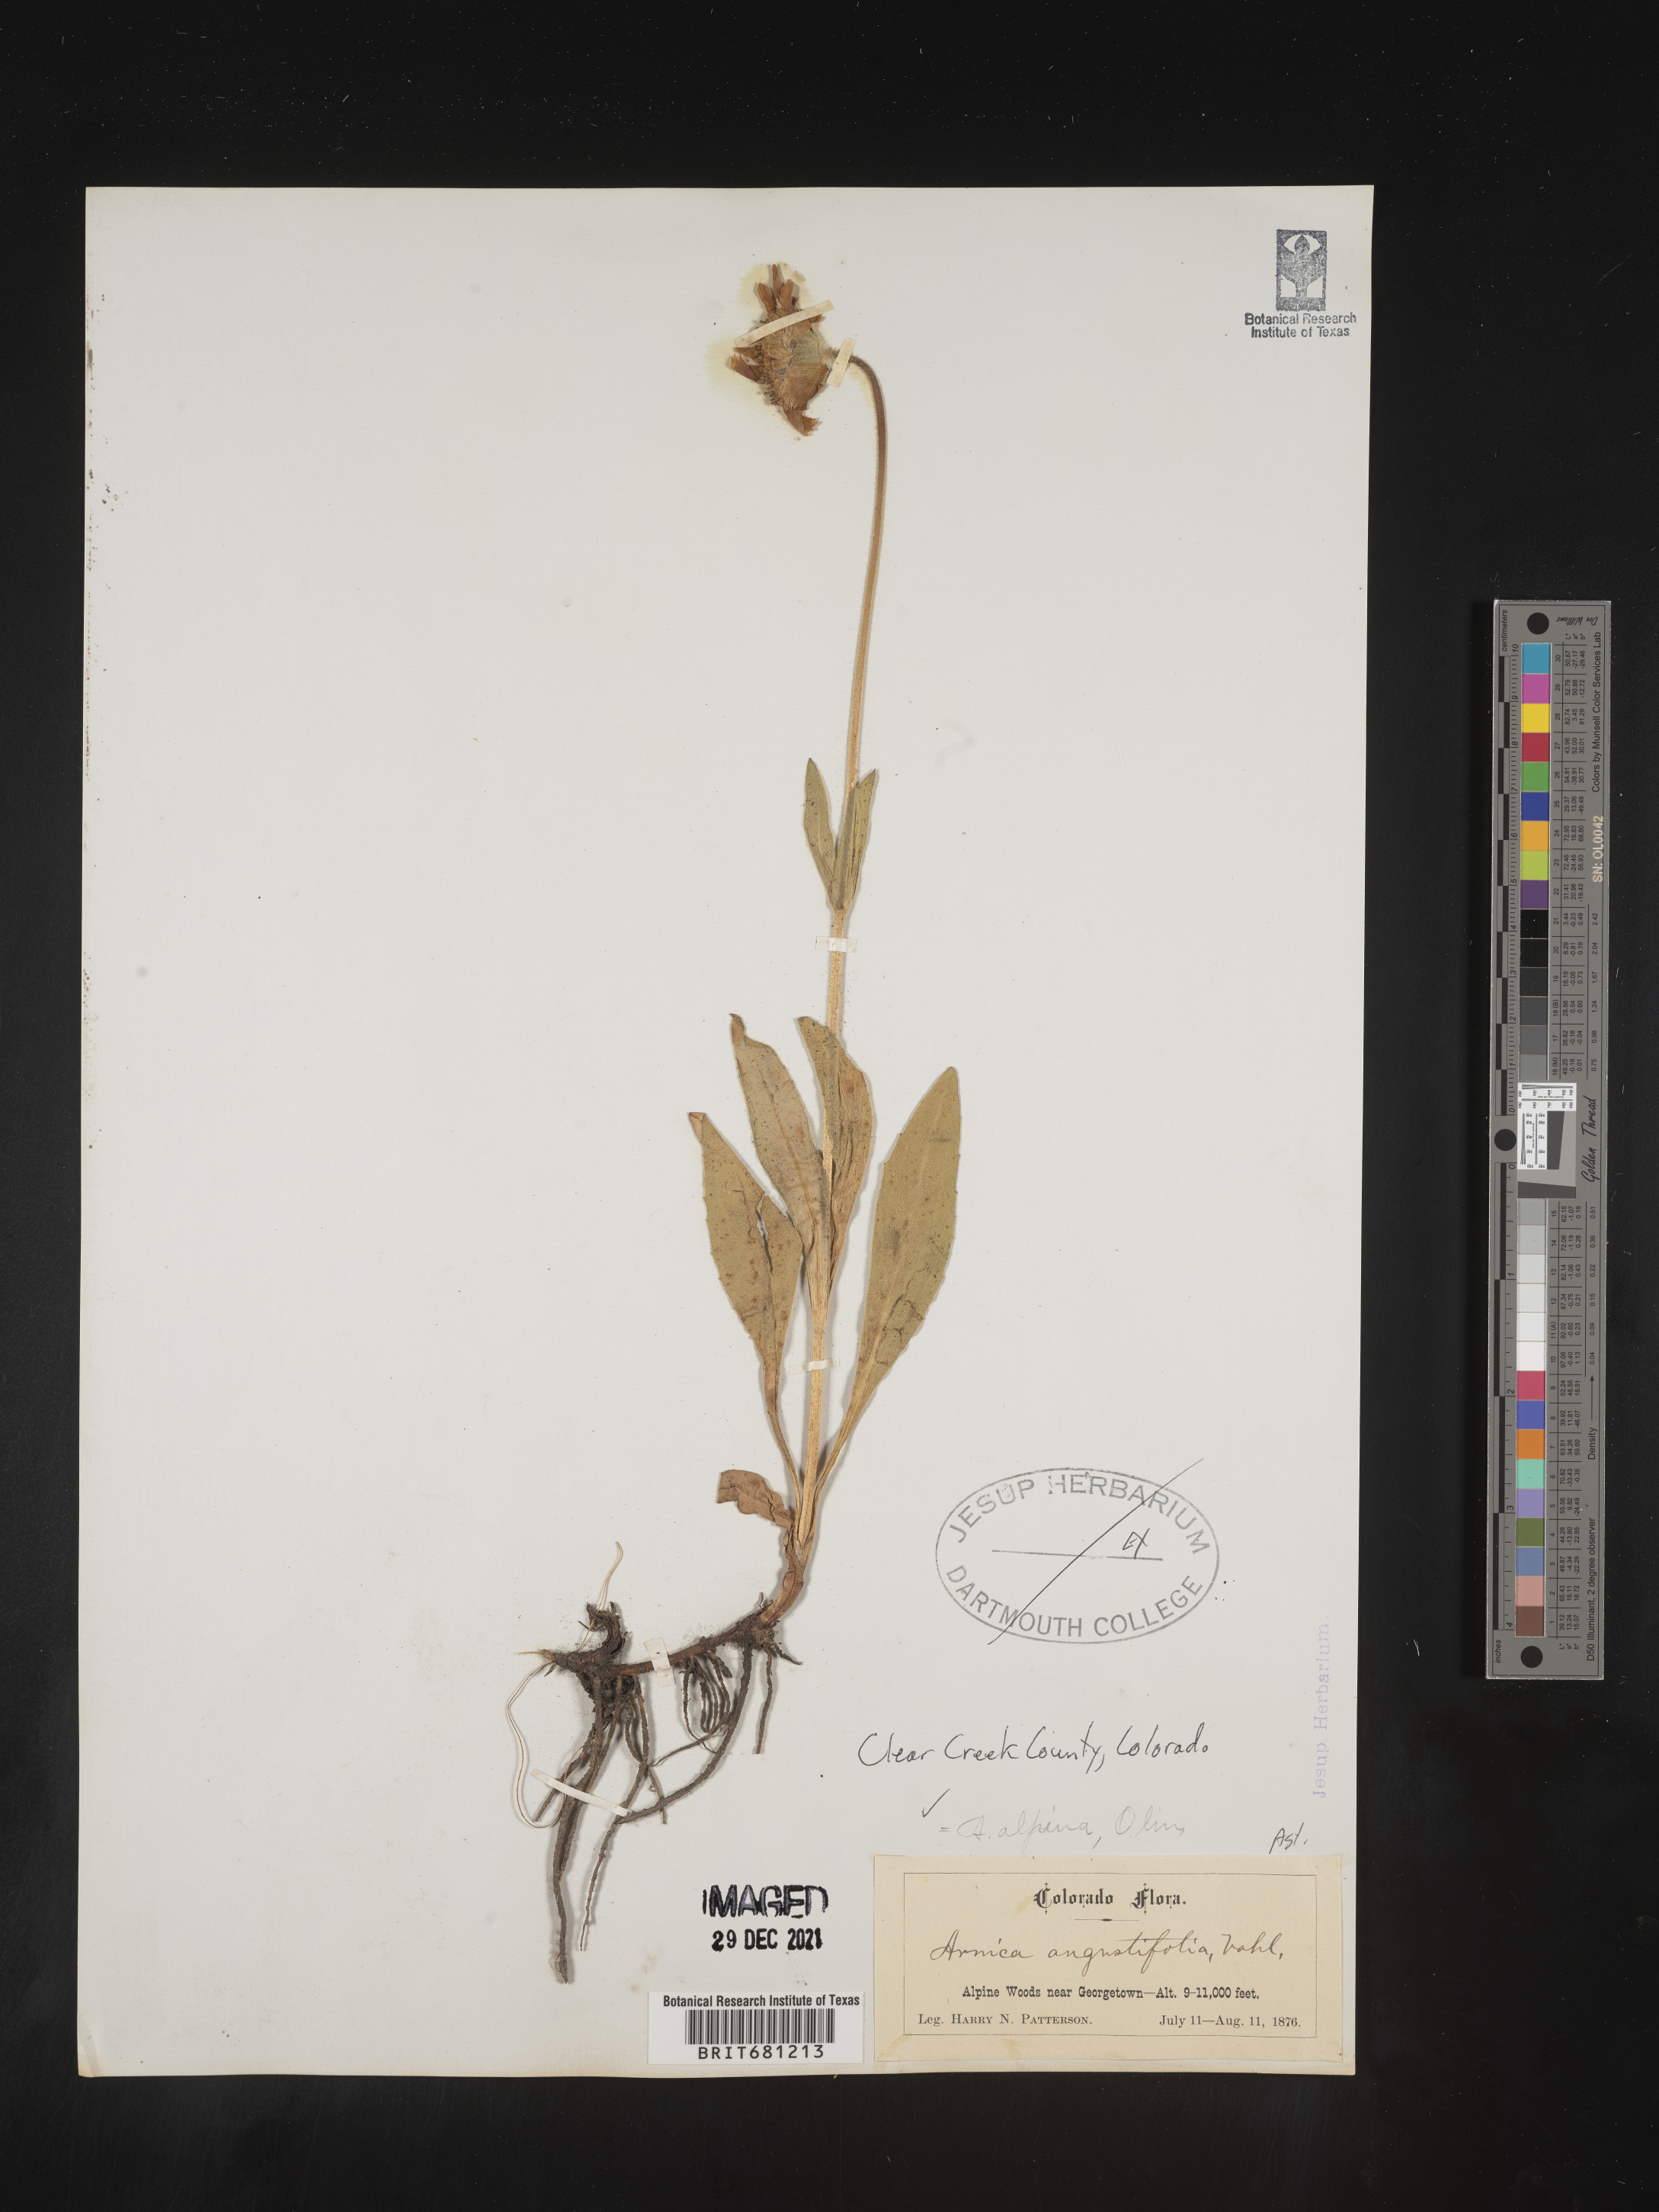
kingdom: Plantae
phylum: Tracheophyta
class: Magnoliopsida
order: Asterales
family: Asteraceae
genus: Arnica
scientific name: Arnica angustifolia
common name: Arctic arnica
